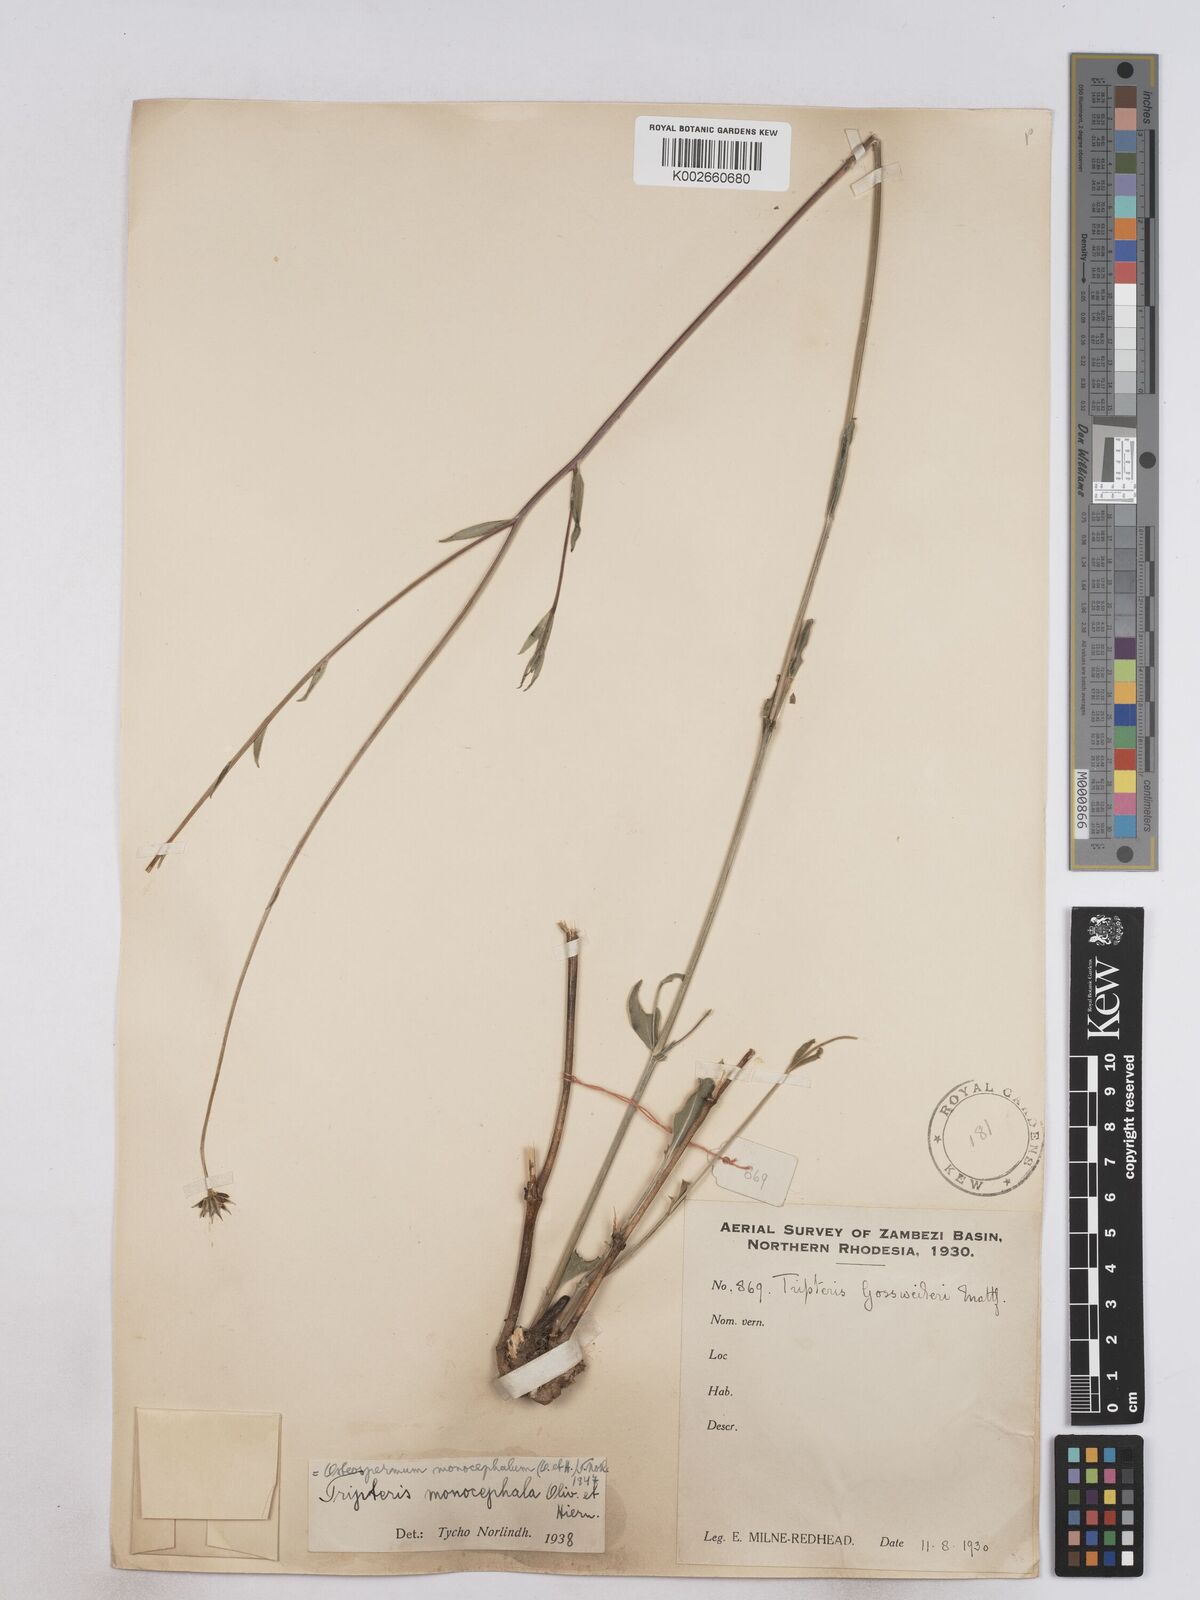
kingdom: Plantae
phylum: Tracheophyta
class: Magnoliopsida
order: Asterales
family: Asteraceae
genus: Osteospermum
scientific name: Osteospermum monocephalum
